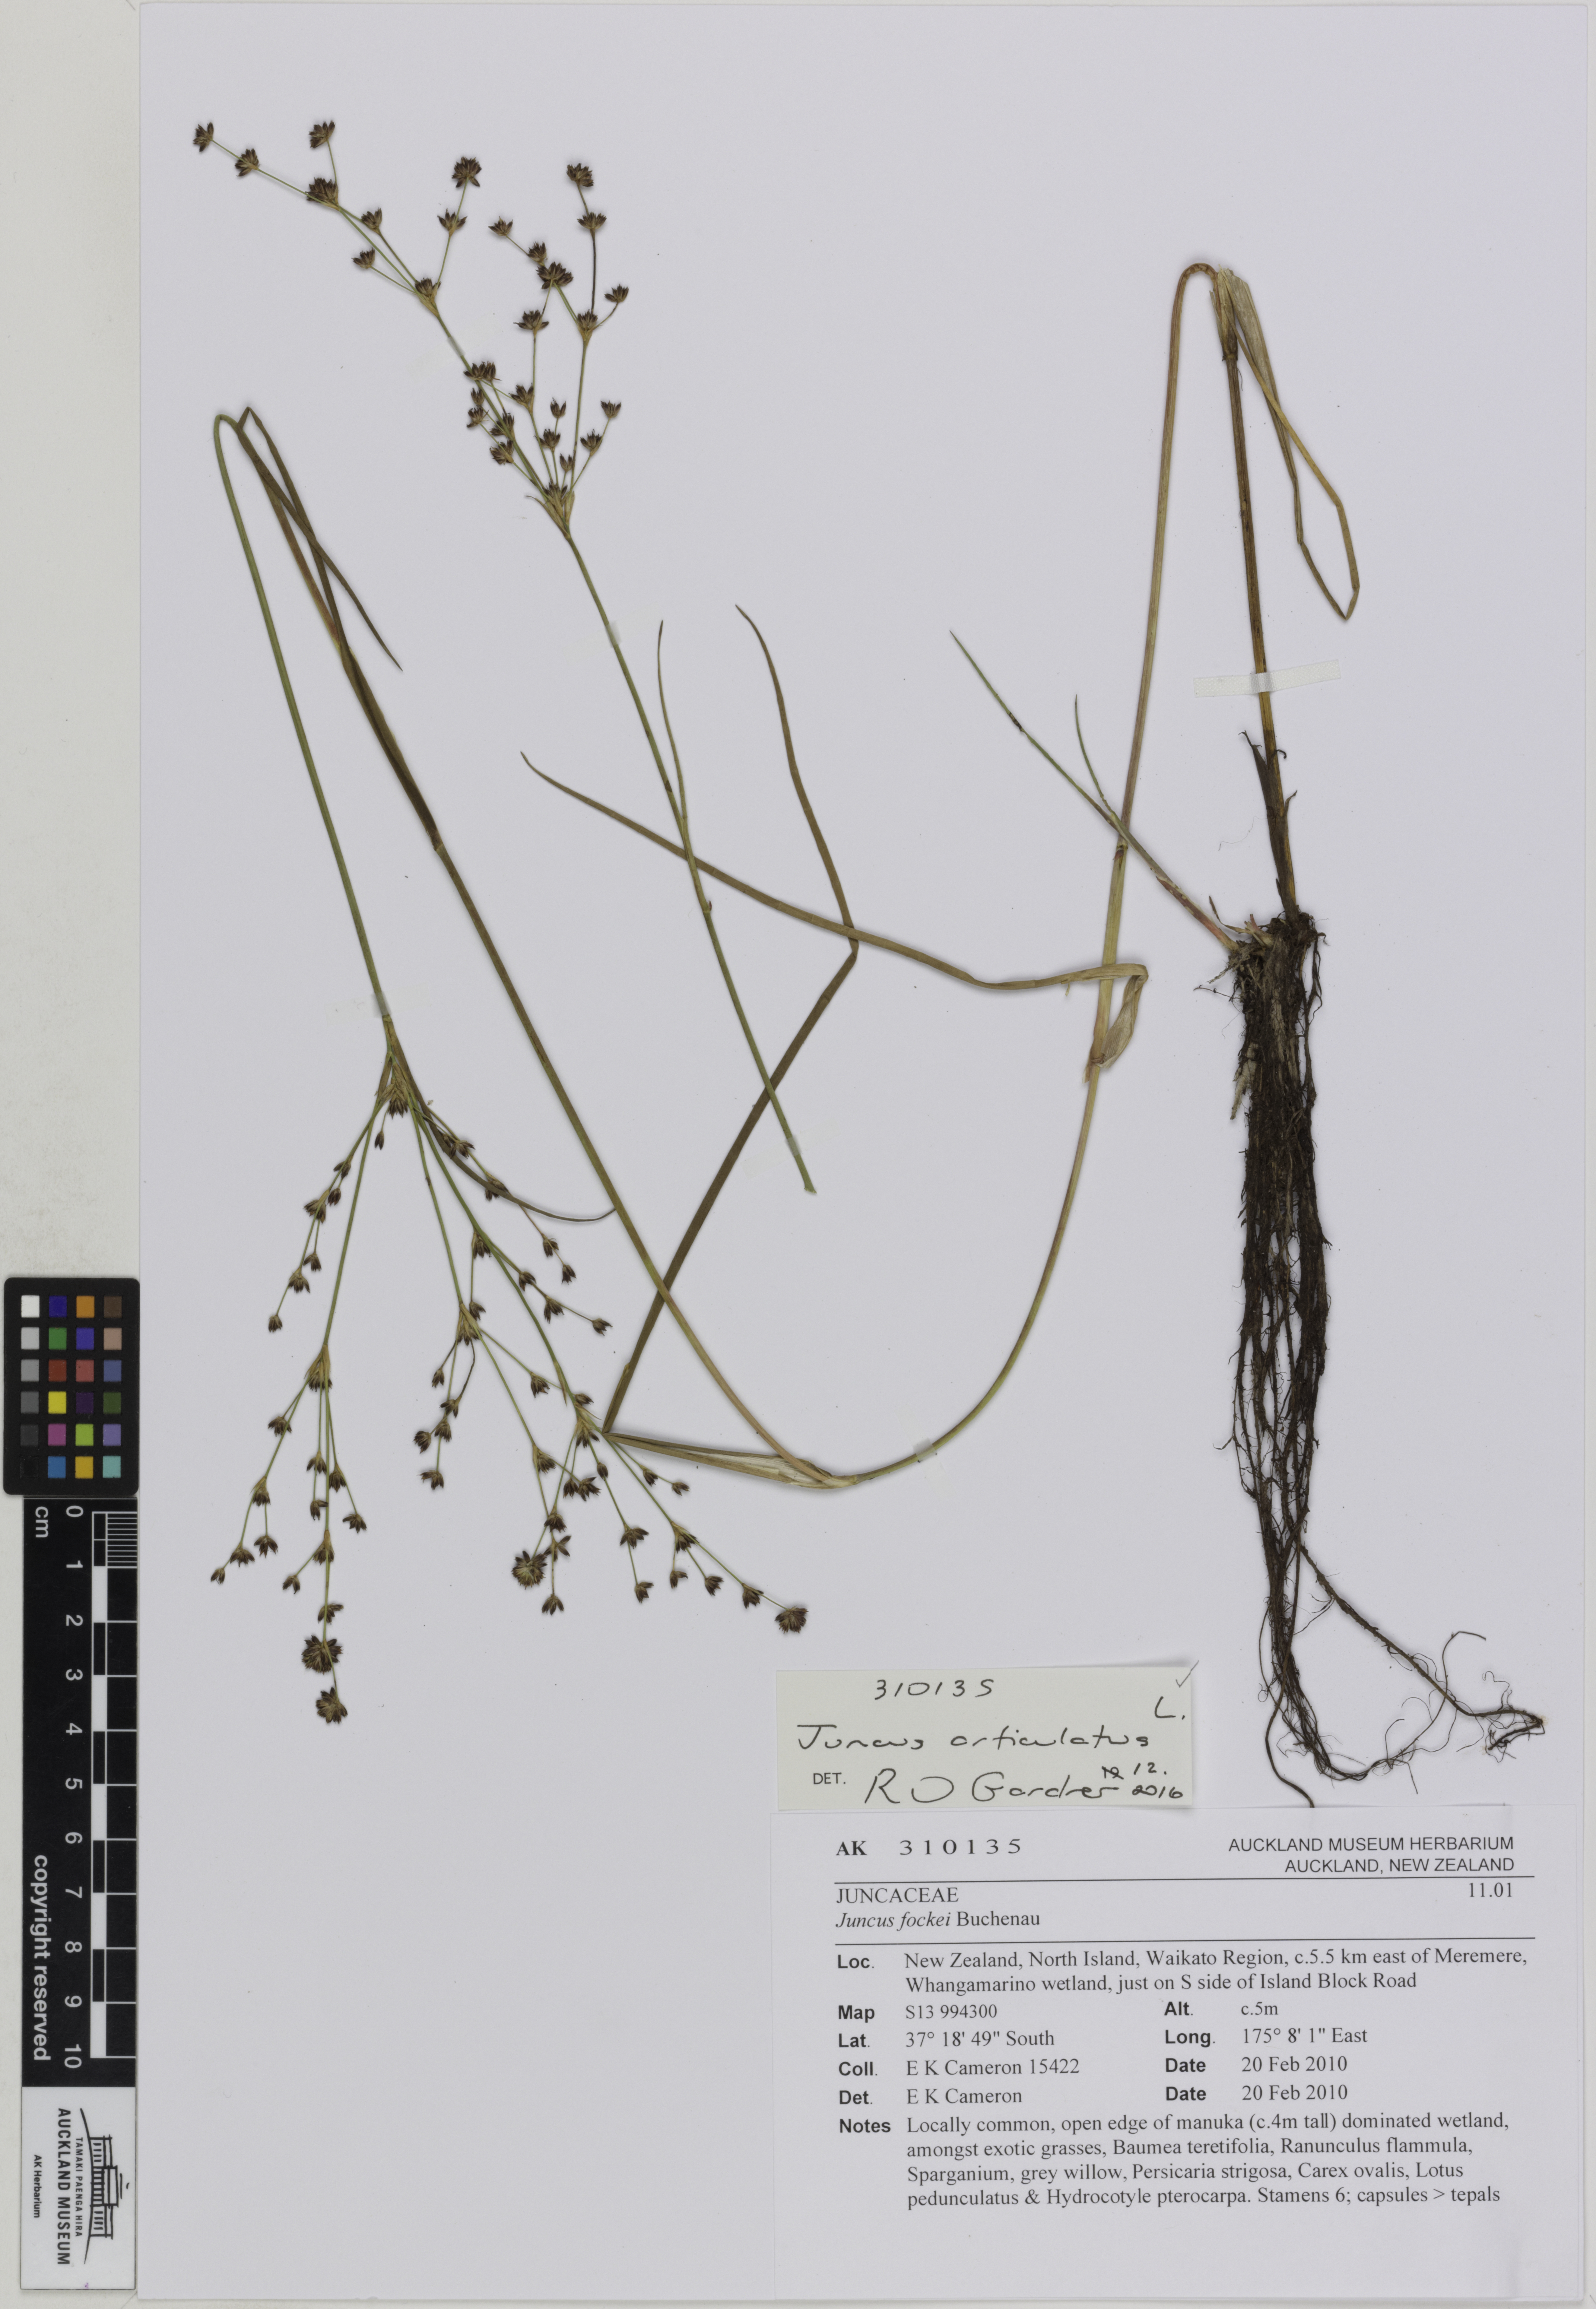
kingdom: Plantae
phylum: Tracheophyta
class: Liliopsida
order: Poales
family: Juncaceae
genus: Juncus
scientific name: Juncus articulatus
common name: Jointed rush
